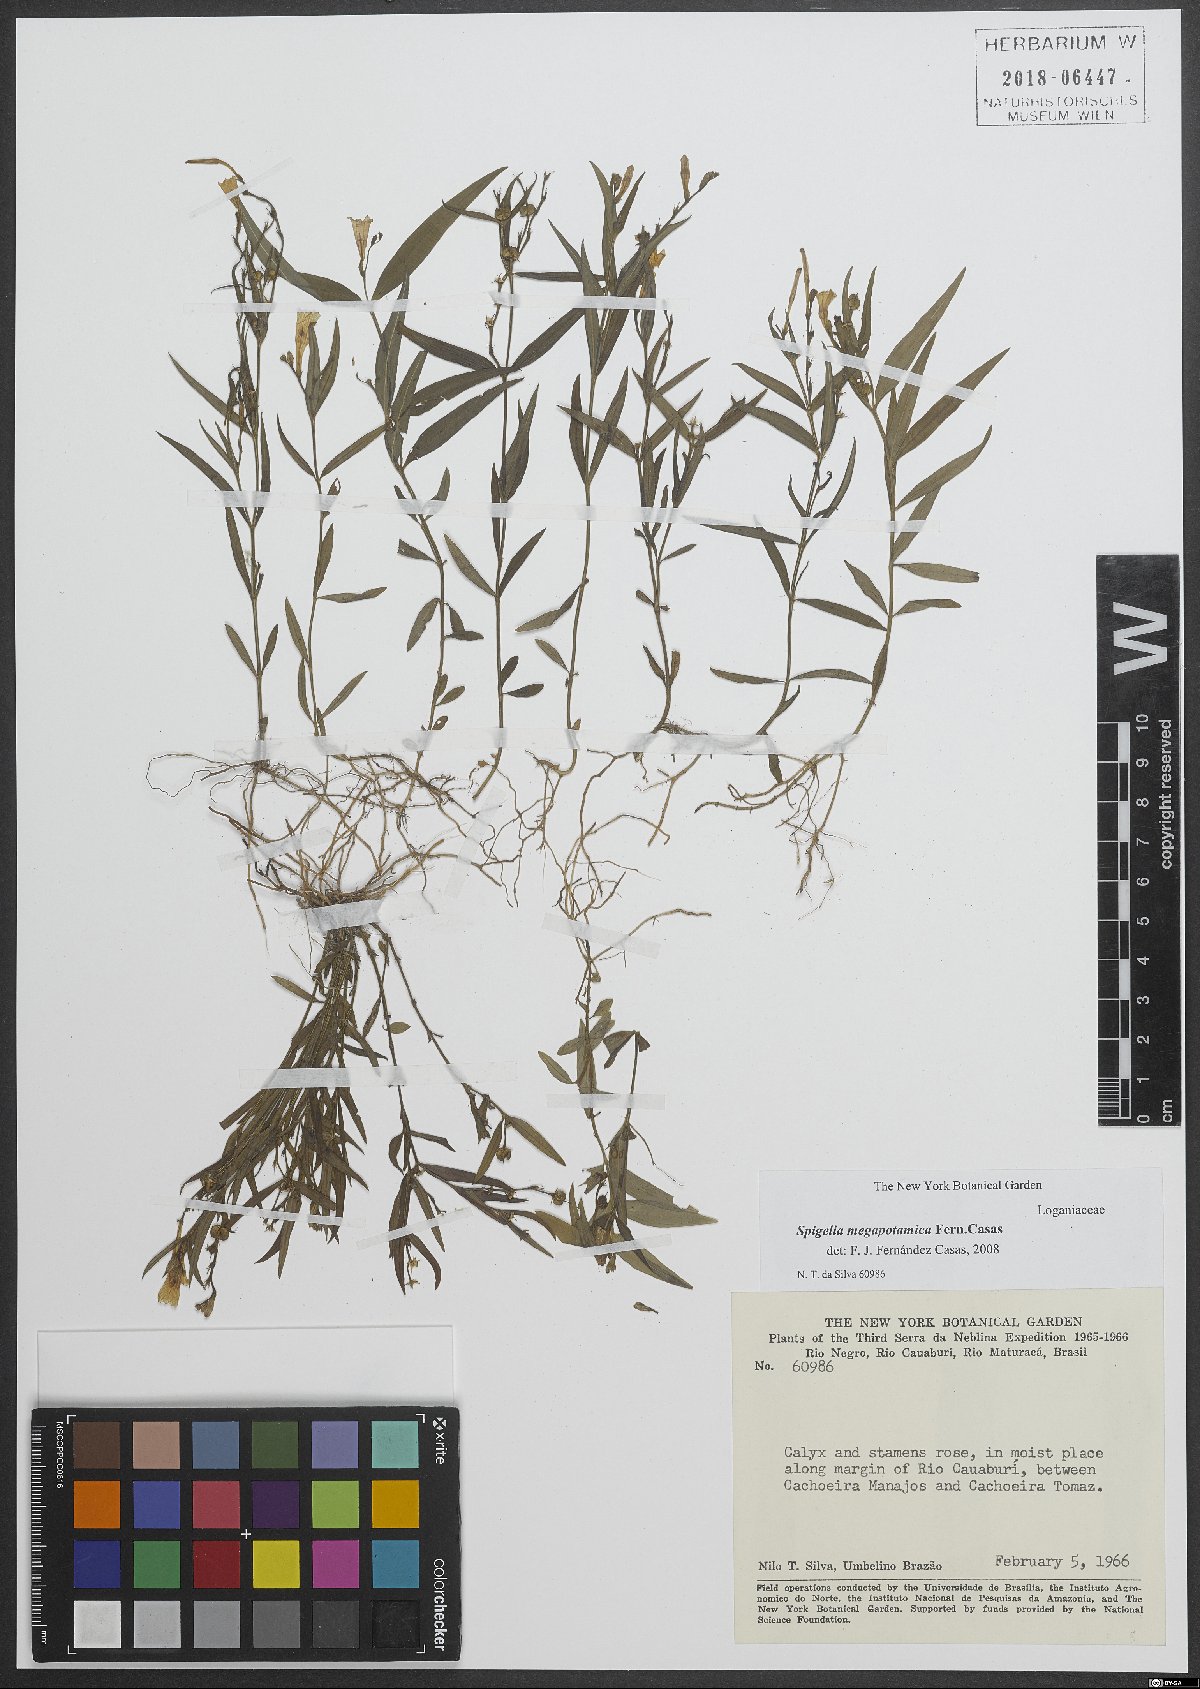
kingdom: Plantae
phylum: Tracheophyta
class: Magnoliopsida
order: Gentianales
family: Loganiaceae
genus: Spigelia
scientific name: Spigelia megapotamica
